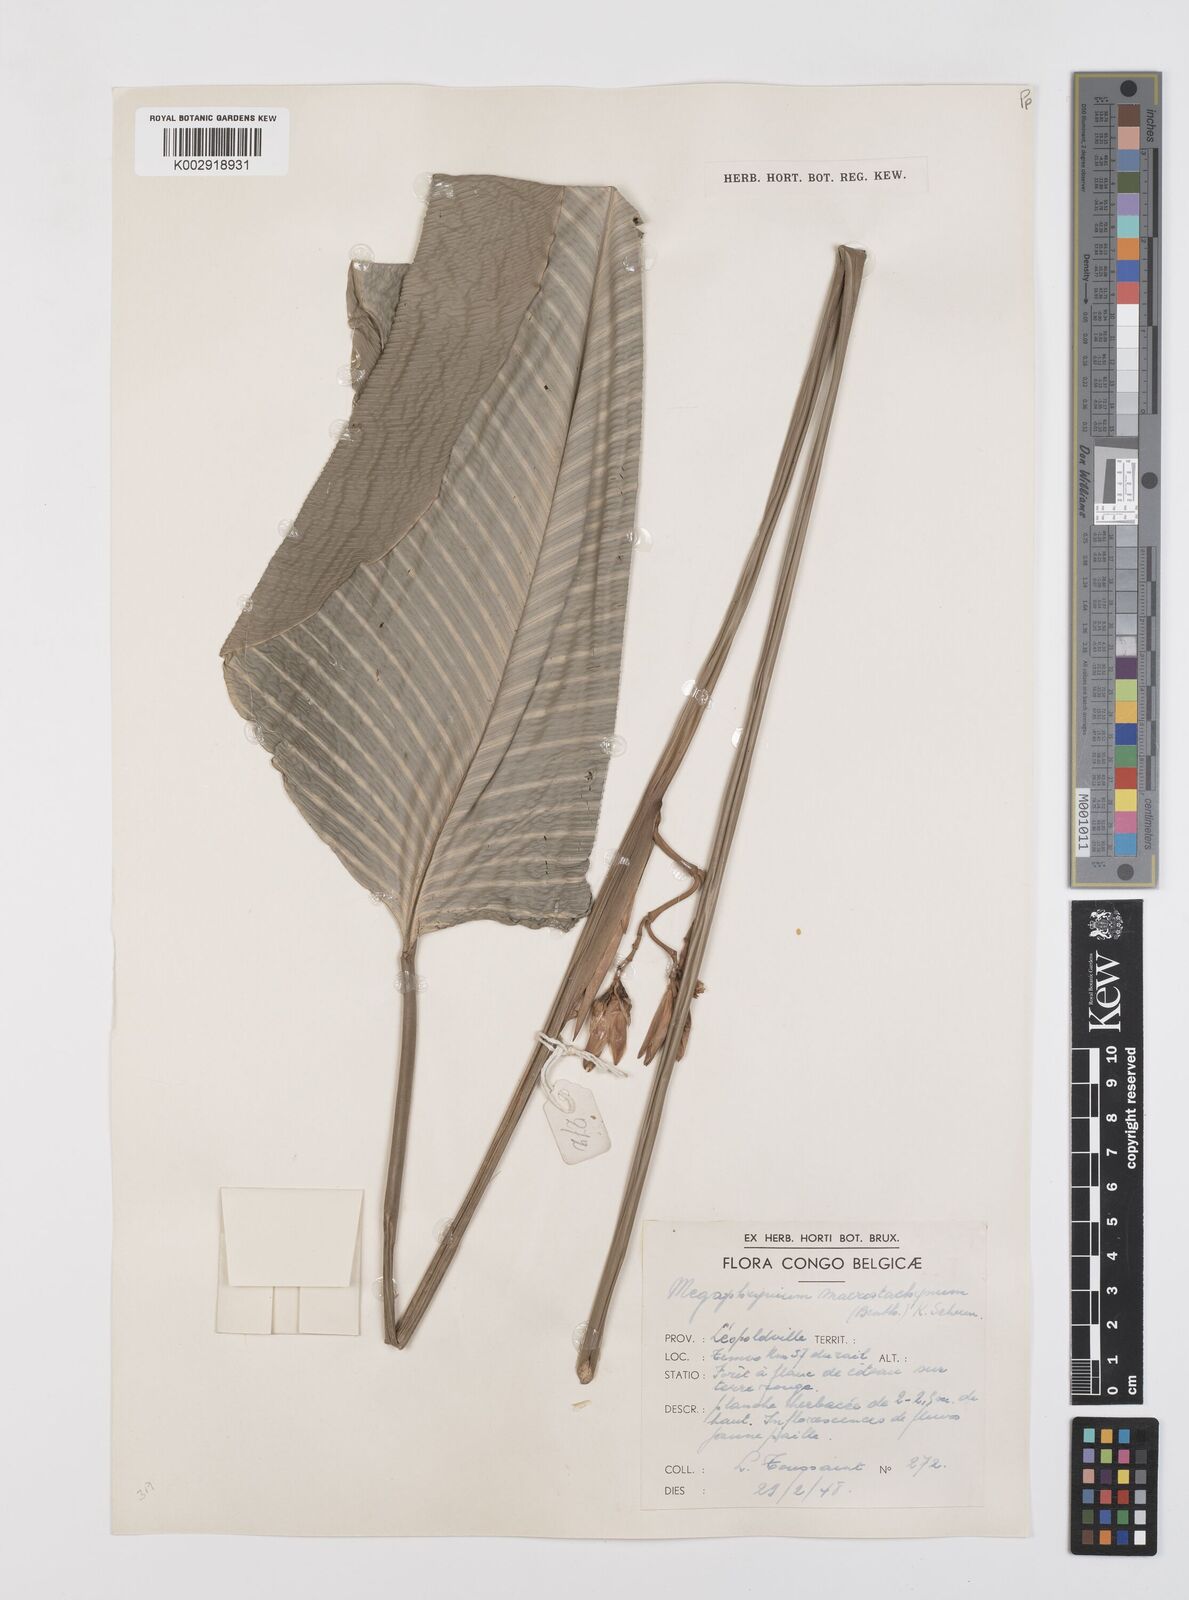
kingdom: Plantae
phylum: Tracheophyta
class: Liliopsida
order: Zingiberales
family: Marantaceae
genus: Megaphrynium
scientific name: Megaphrynium macrostachyum
